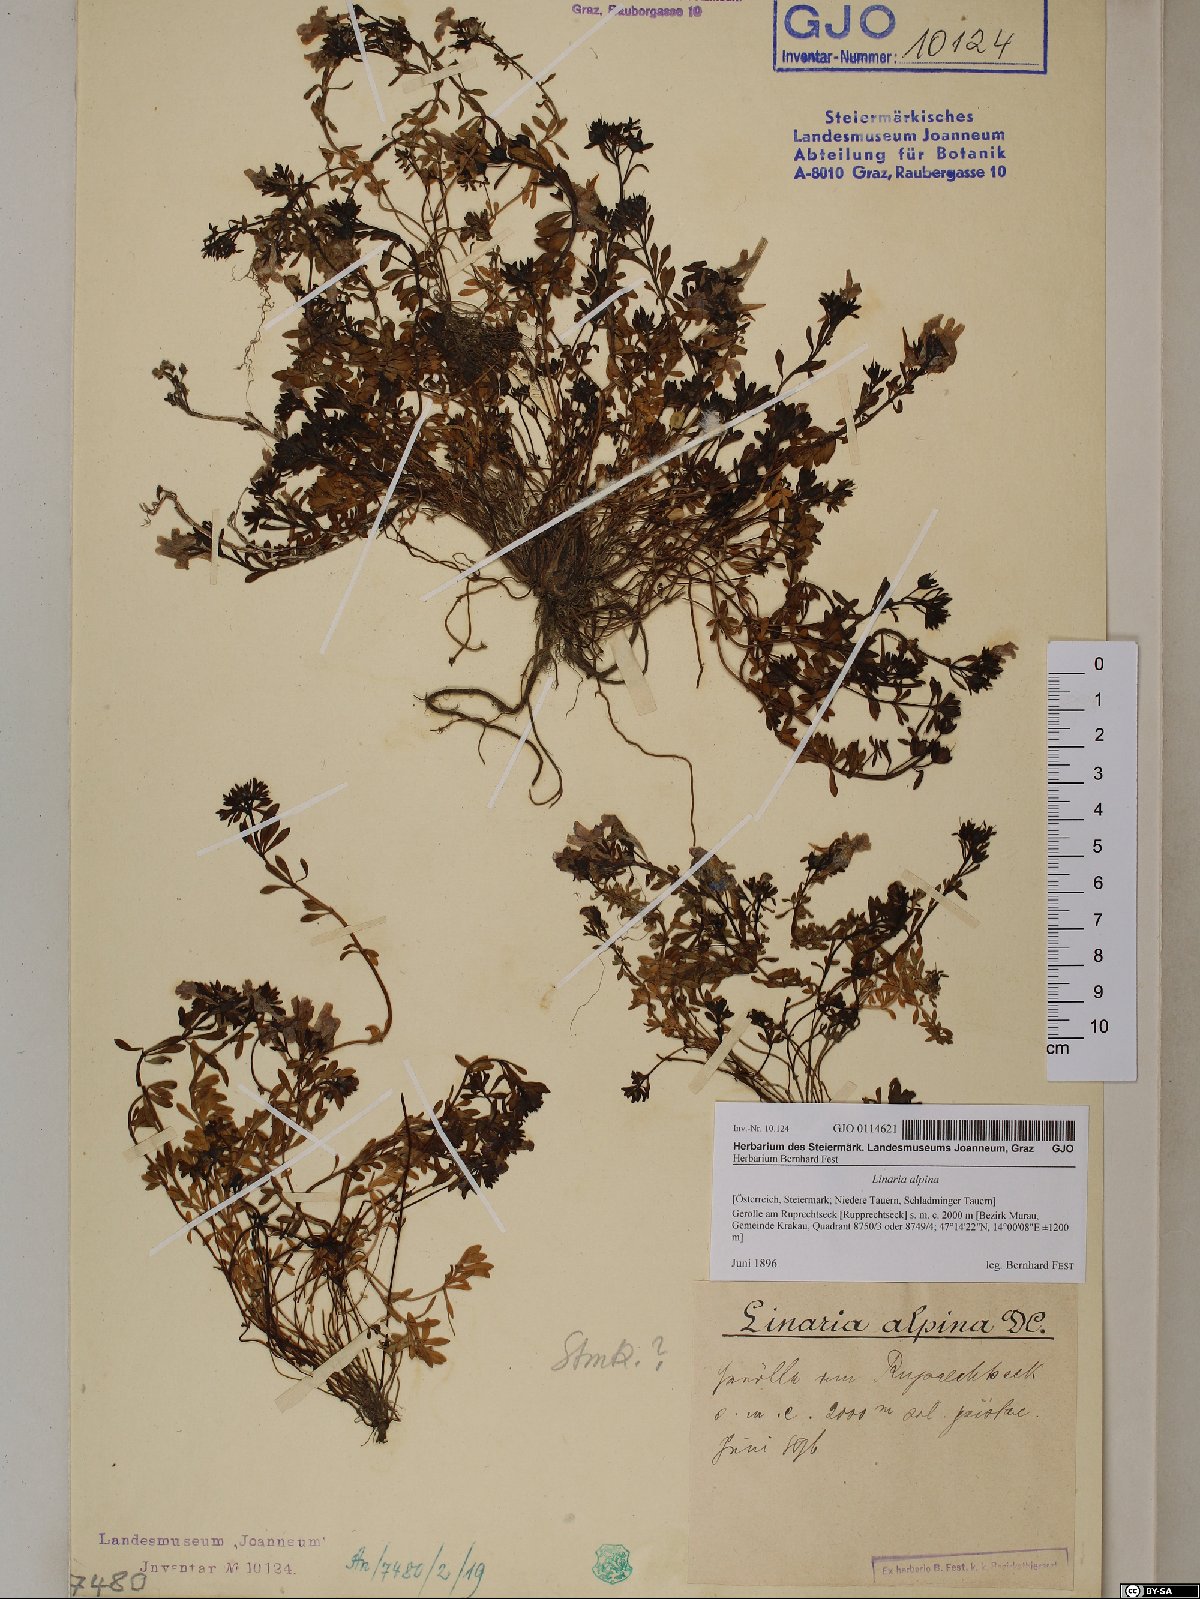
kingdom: Plantae
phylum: Tracheophyta
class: Magnoliopsida
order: Lamiales
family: Plantaginaceae
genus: Linaria
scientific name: Linaria alpina
